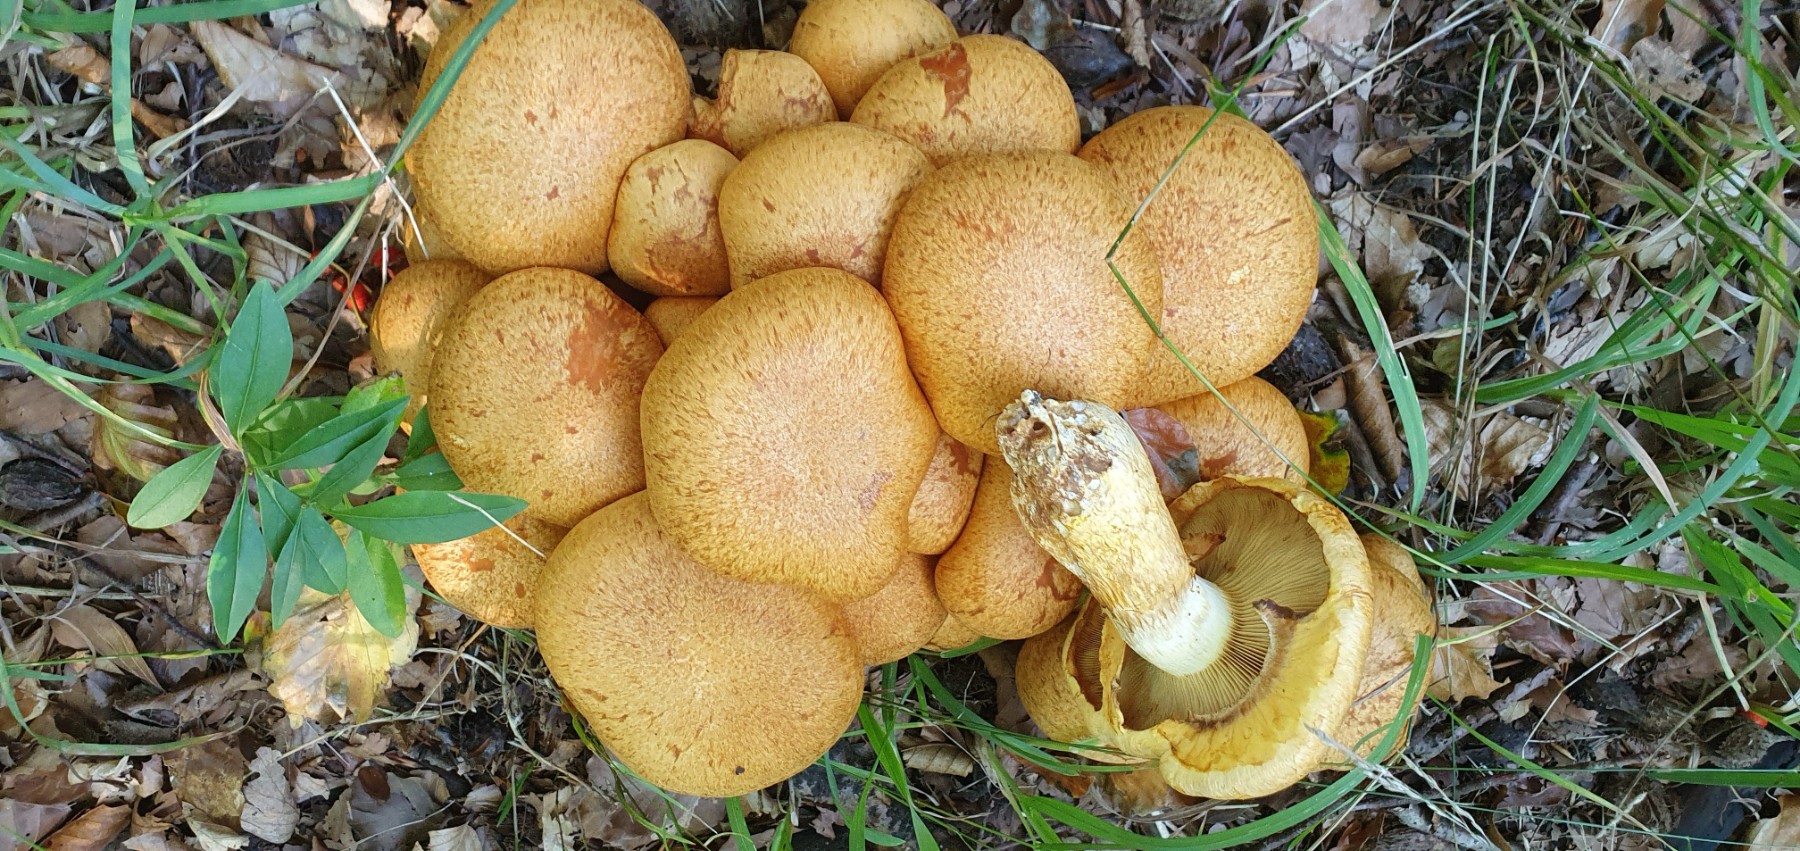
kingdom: Fungi
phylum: Basidiomycota
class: Agaricomycetes
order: Agaricales
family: Hymenogastraceae
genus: Gymnopilus
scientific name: Gymnopilus spectabilis
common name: fibret flammehat
